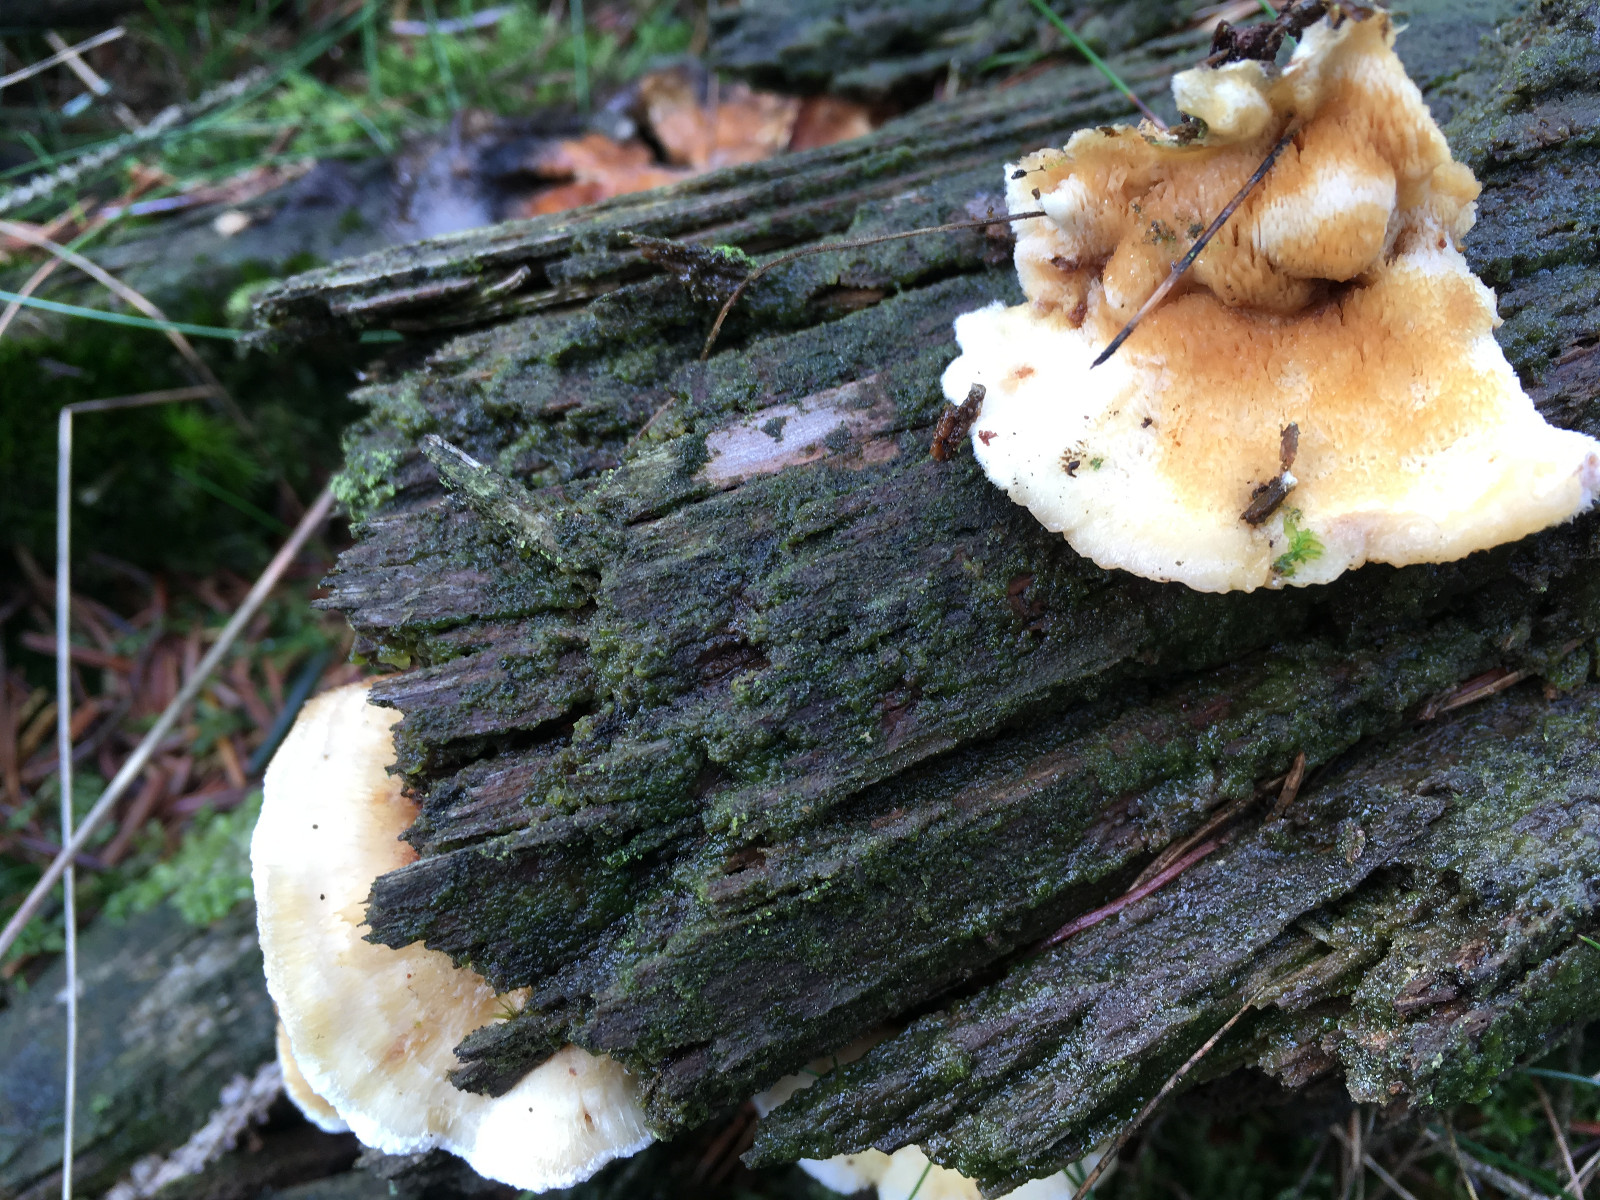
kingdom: Fungi
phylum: Basidiomycota
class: Agaricomycetes
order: Polyporales
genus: Fuscopostia
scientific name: Fuscopostia fragilis
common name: brunende kødporesvamp
